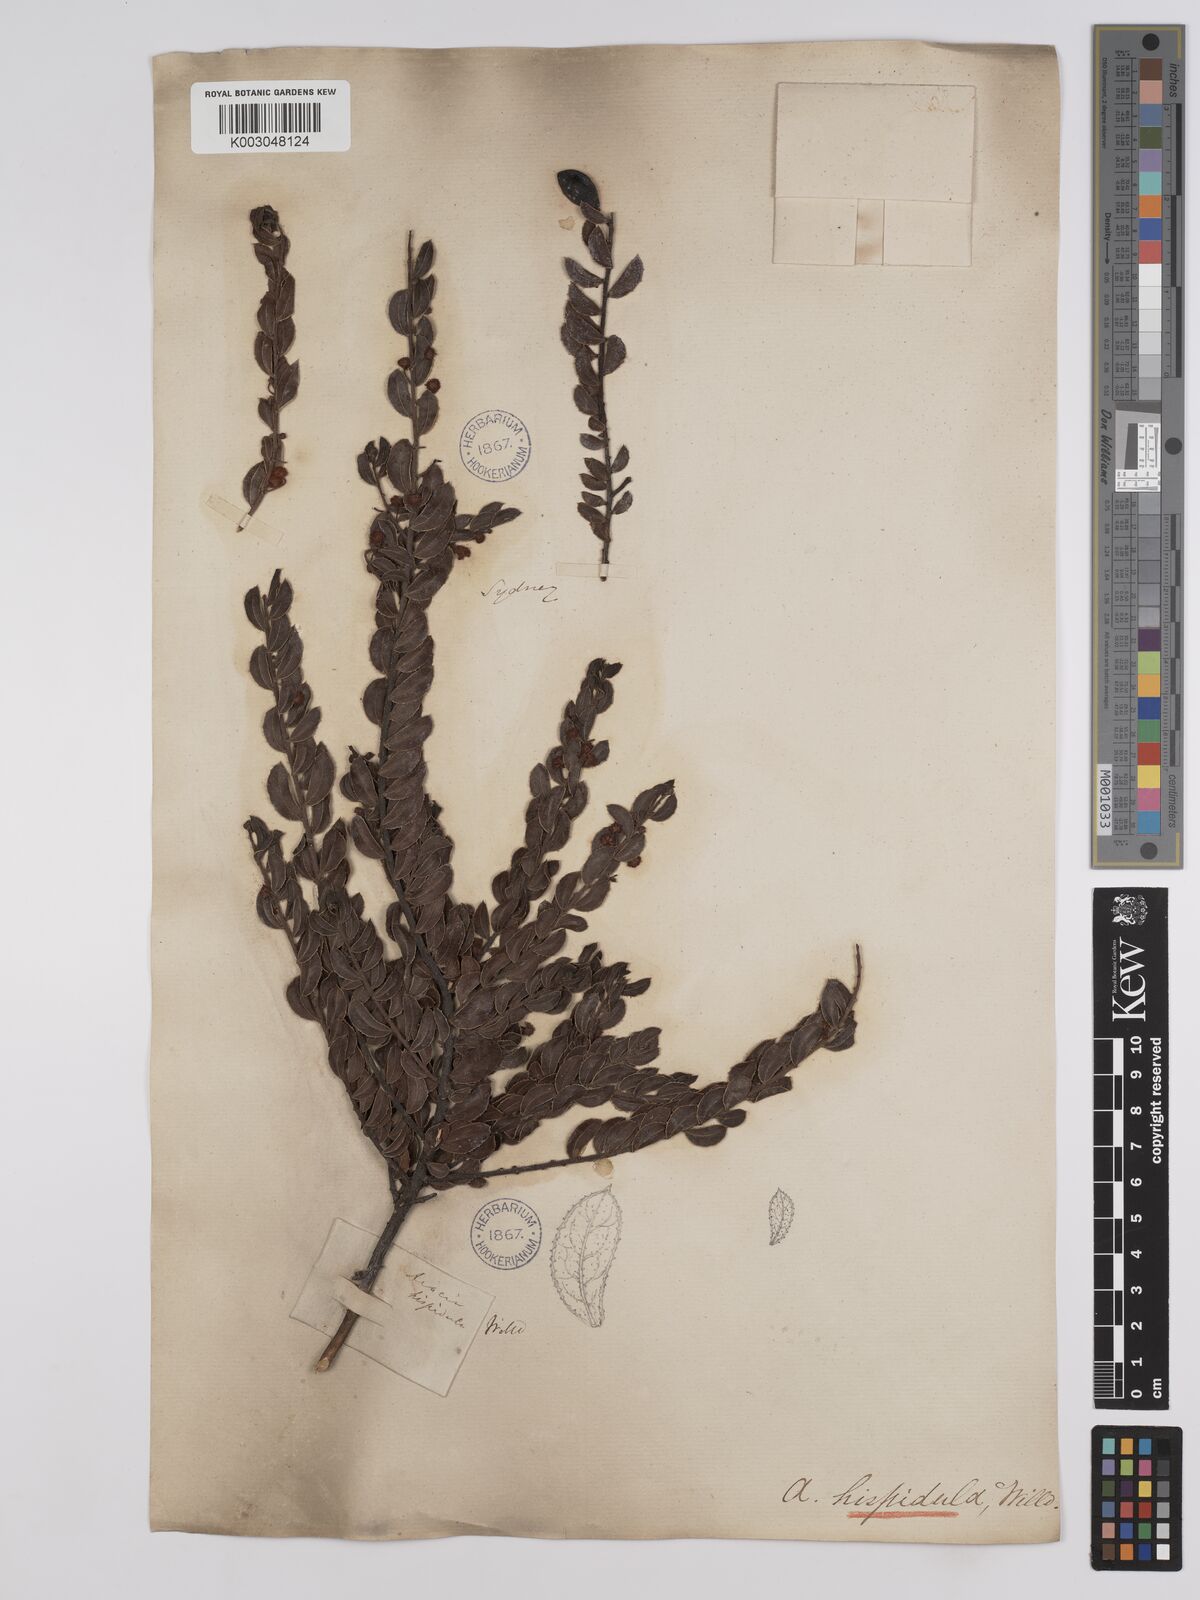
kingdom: Plantae
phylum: Tracheophyta
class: Magnoliopsida
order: Fabales
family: Fabaceae
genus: Acacia
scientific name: Acacia hispidula
